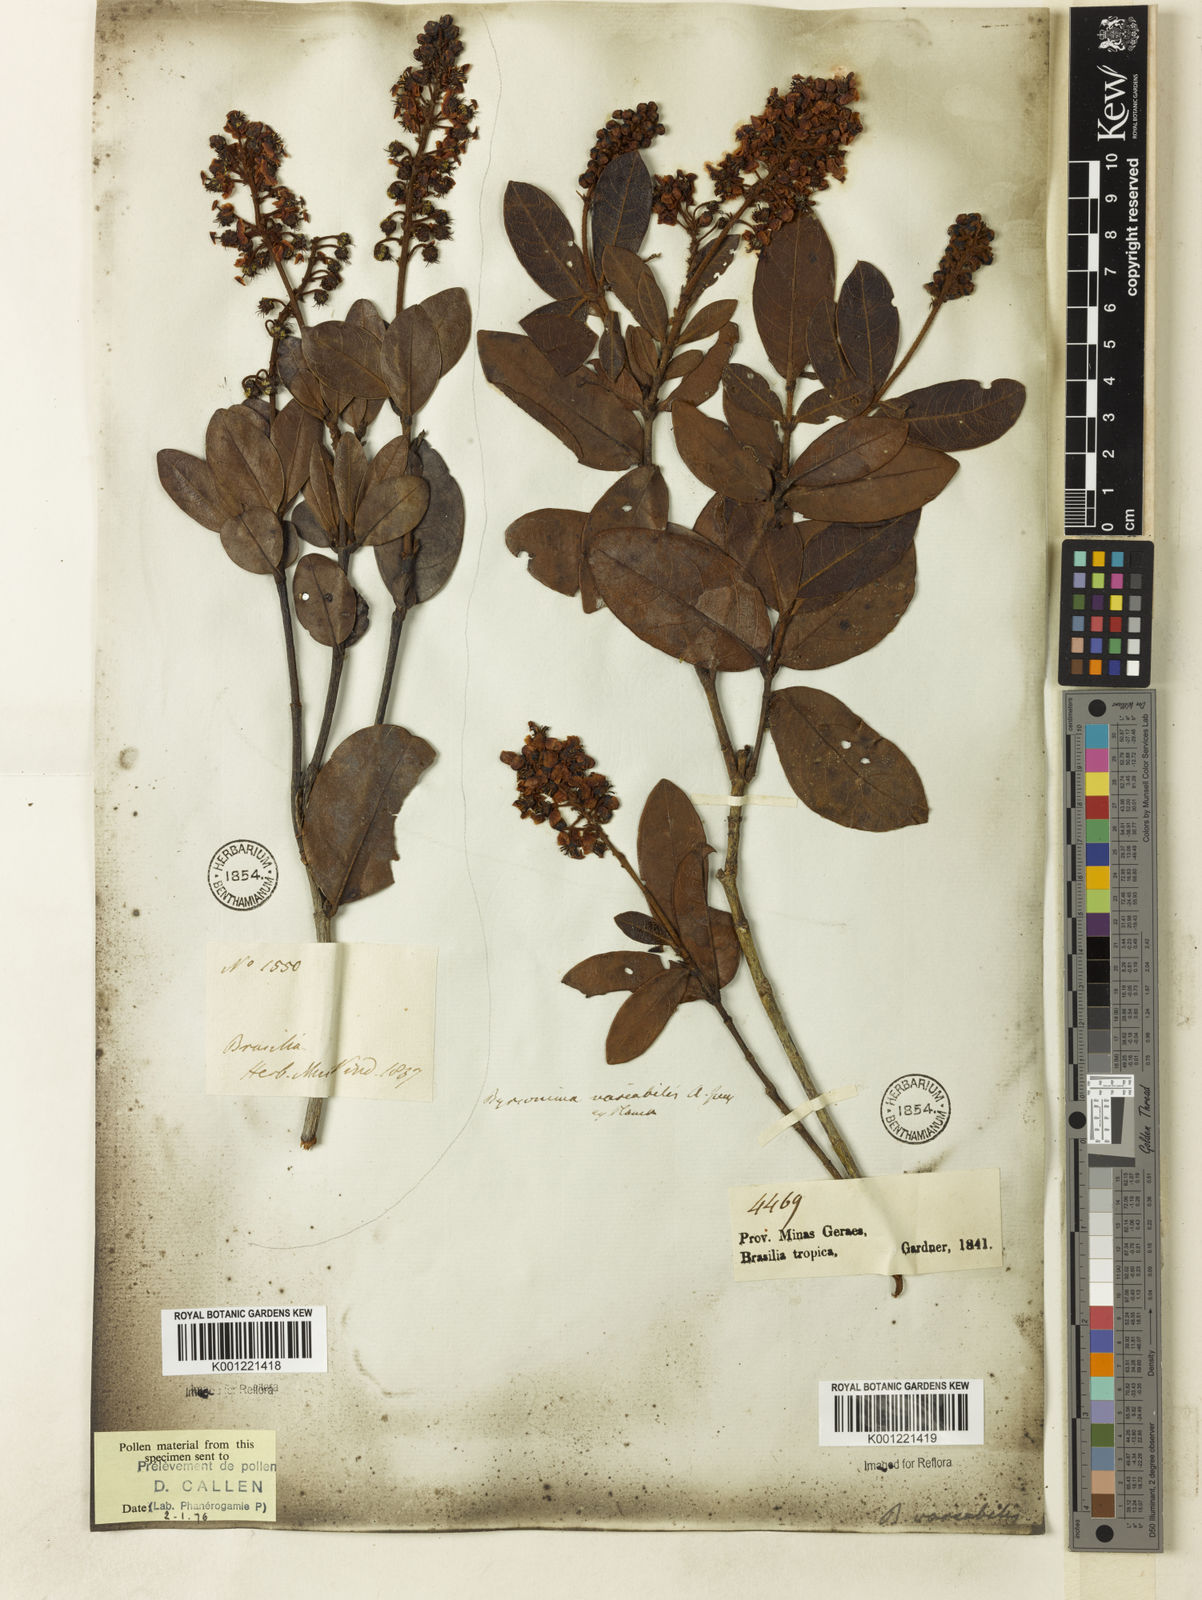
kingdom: Plantae
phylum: Tracheophyta
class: Magnoliopsida
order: Malpighiales
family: Malpighiaceae
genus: Byrsonima
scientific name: Byrsonima variabilis
